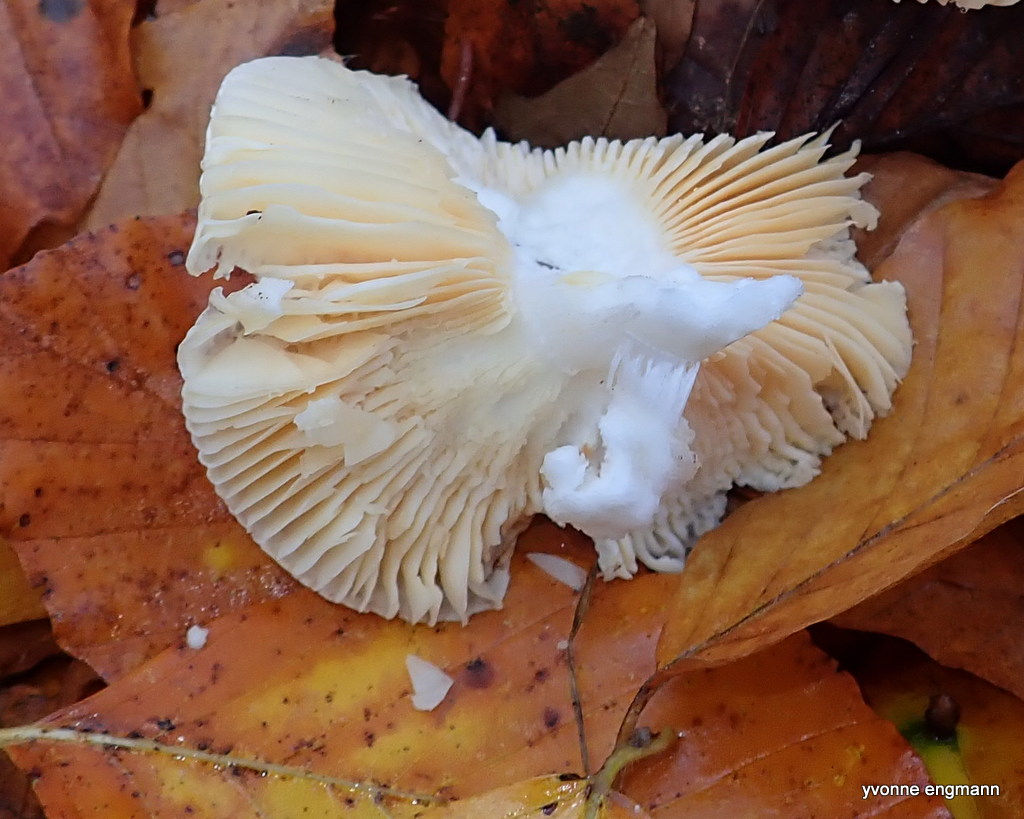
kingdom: Fungi
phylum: Basidiomycota
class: Agaricomycetes
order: Russulales
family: Russulaceae
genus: Russula
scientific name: Russula solaris
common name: sol-skørhat
